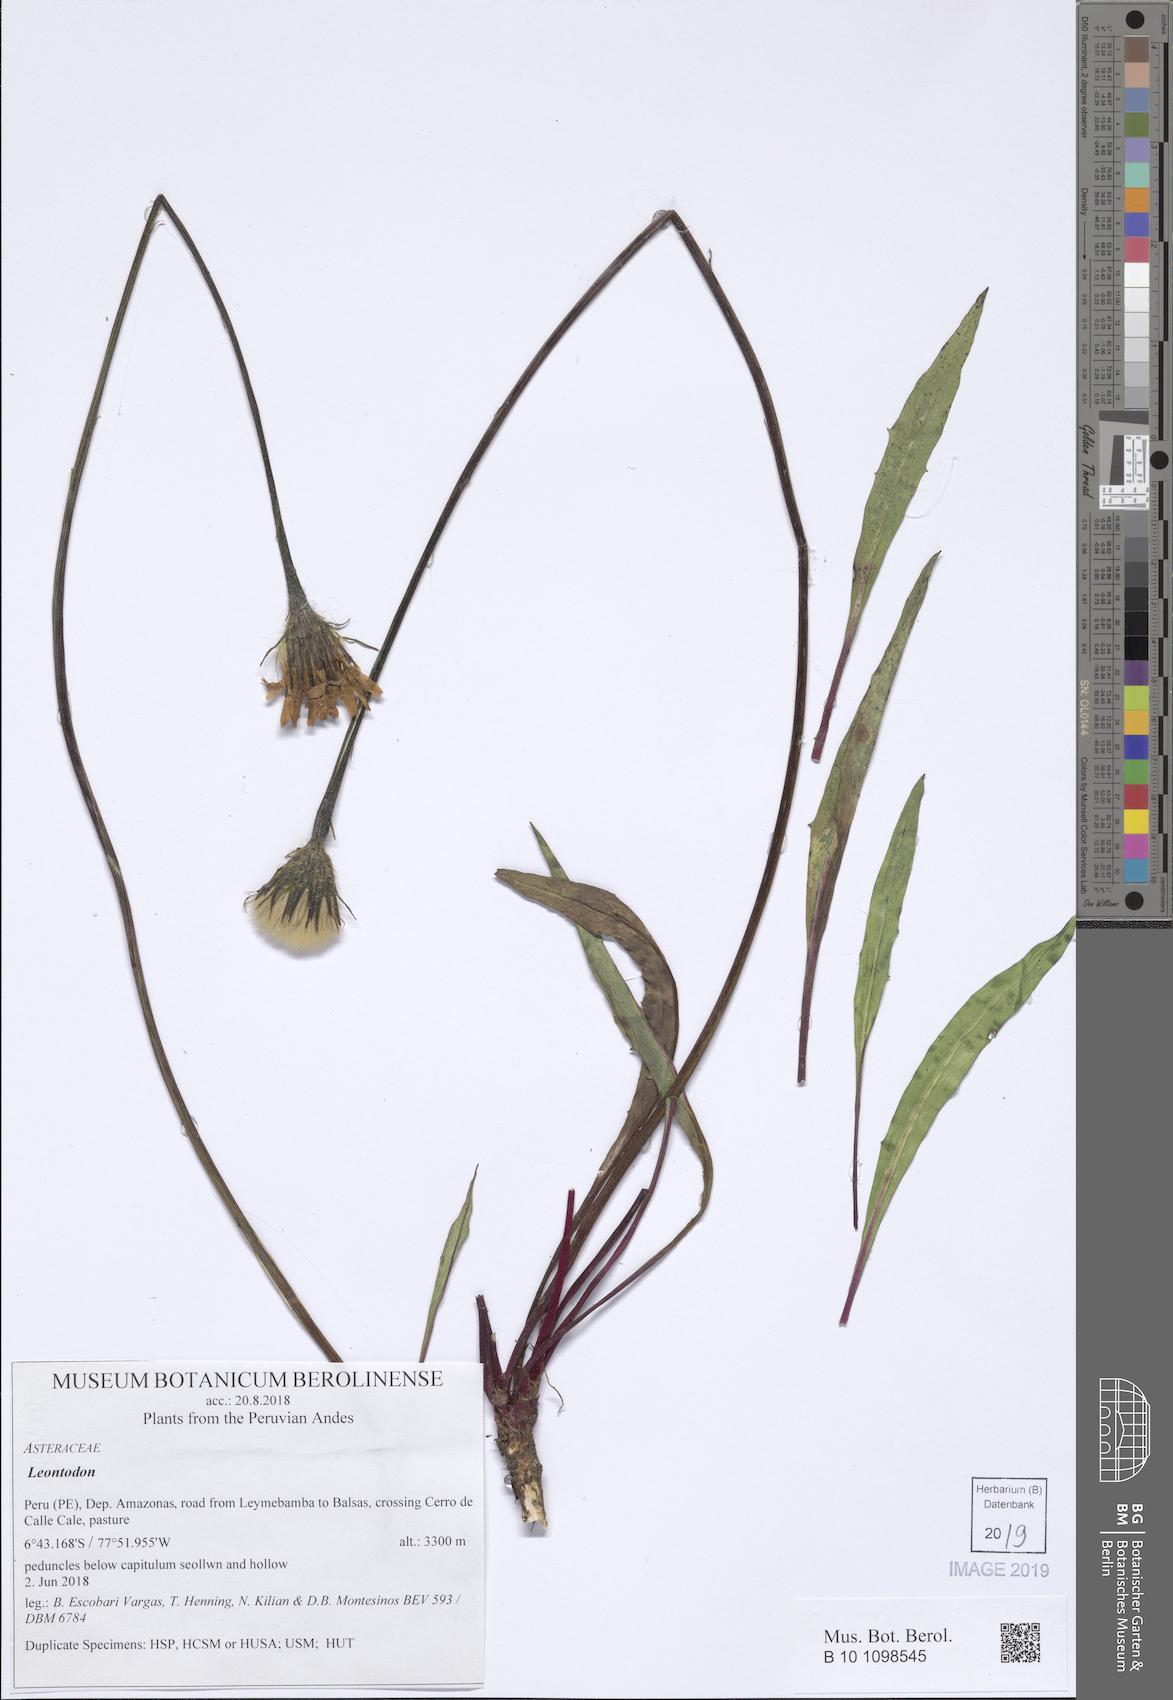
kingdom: Plantae
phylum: Tracheophyta
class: Magnoliopsida
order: Asterales
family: Asteraceae
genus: Leontodon
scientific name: Leontodon
